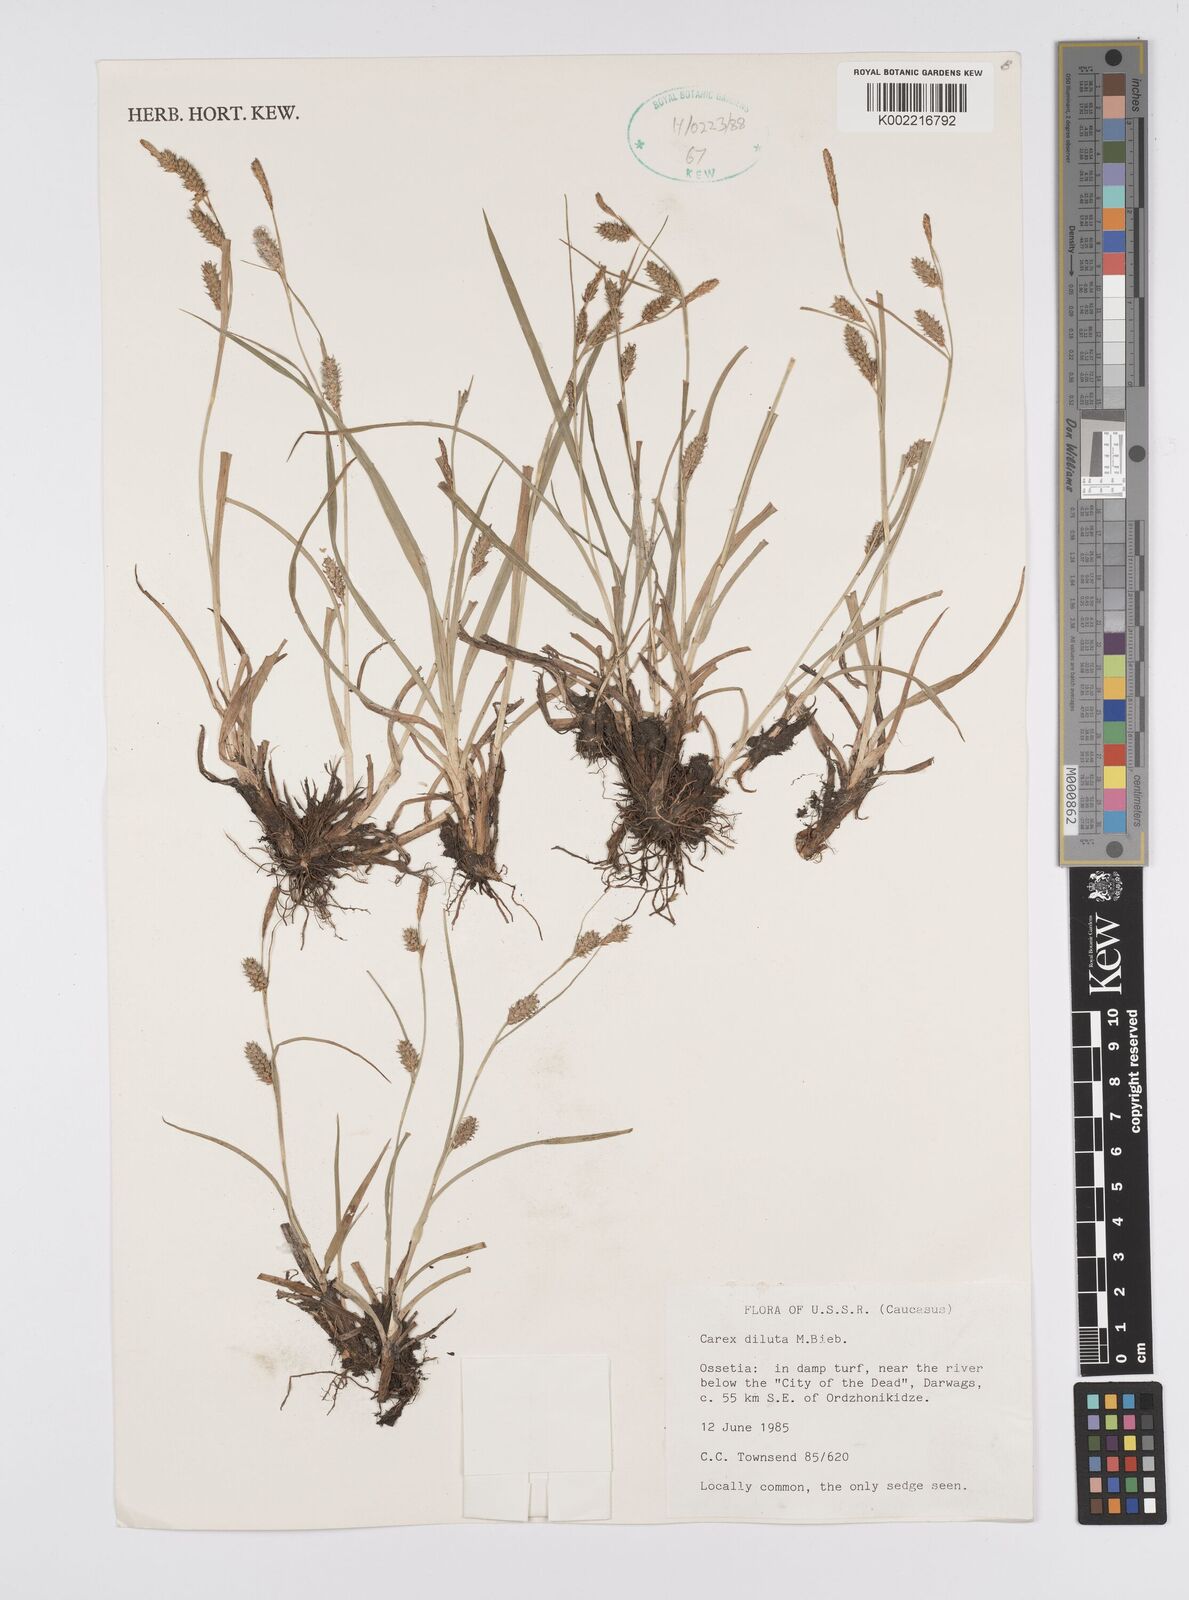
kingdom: Plantae
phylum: Tracheophyta
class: Liliopsida
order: Poales
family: Cyperaceae
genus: Carex
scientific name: Carex diluta
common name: Sedge
